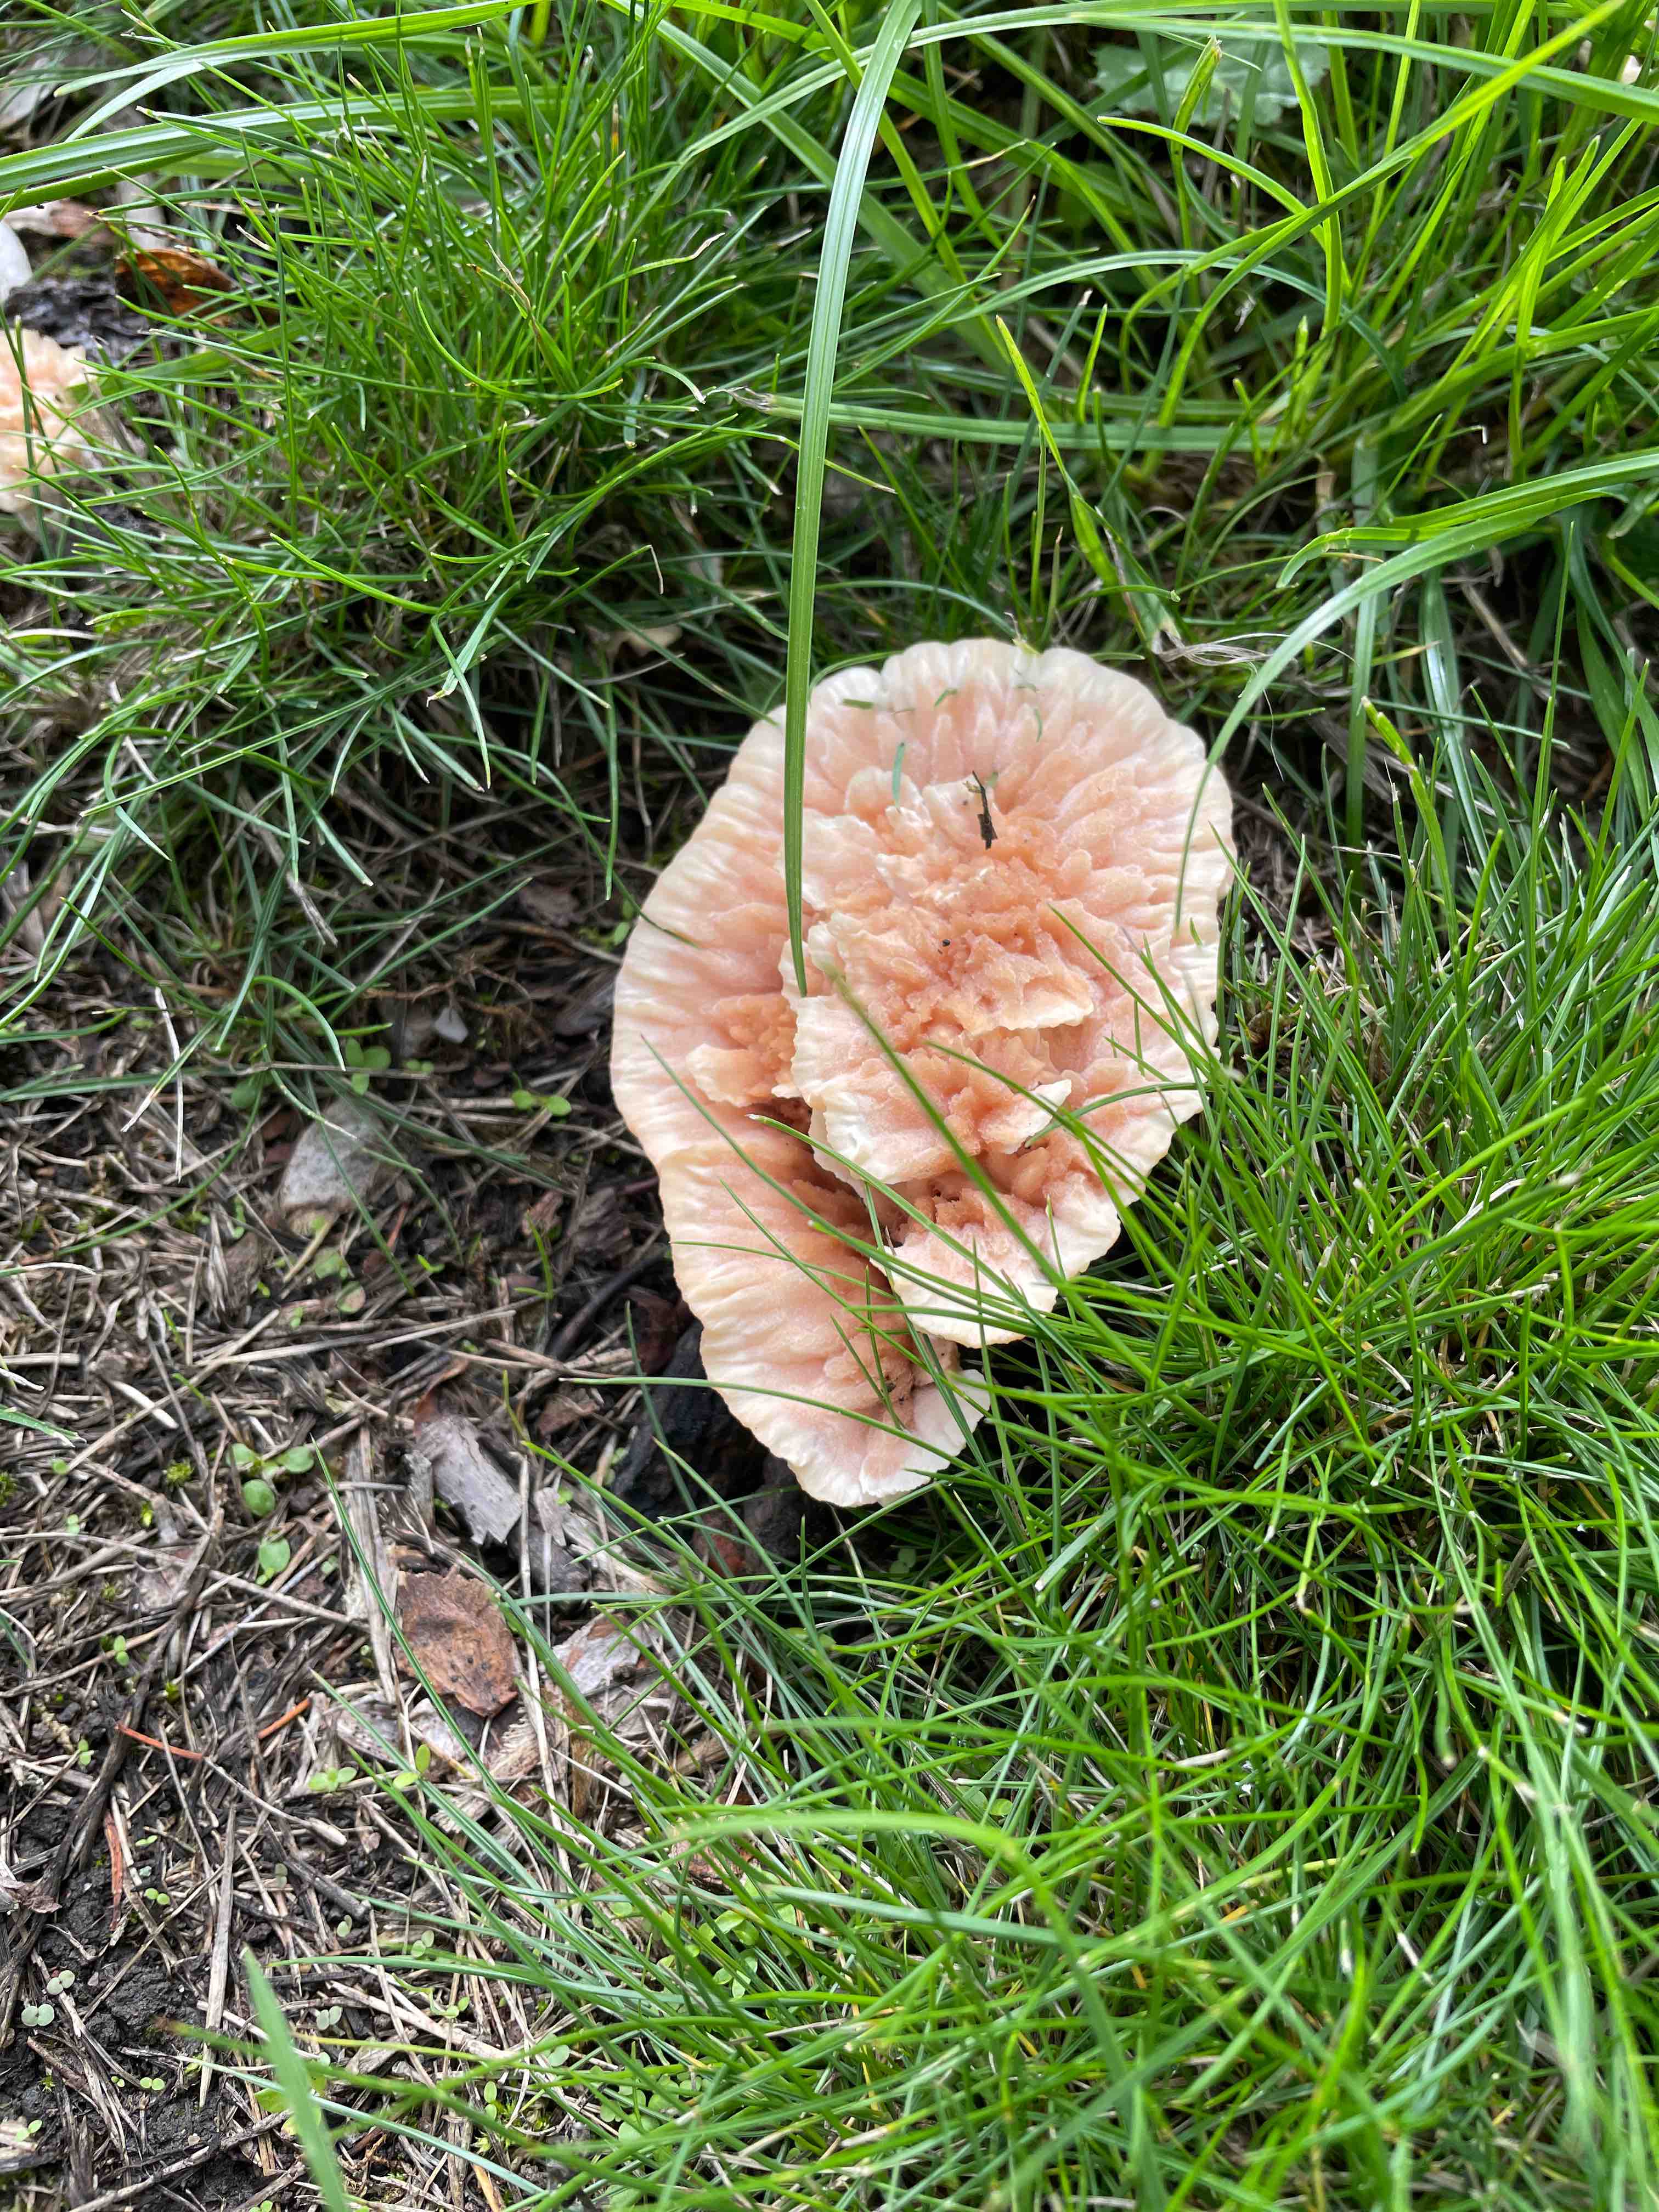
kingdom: Fungi
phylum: Basidiomycota
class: Agaricomycetes
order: Polyporales
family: Podoscyphaceae
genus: Abortiporus
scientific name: Abortiporus biennis
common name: rødmende pjalteporesvamp
